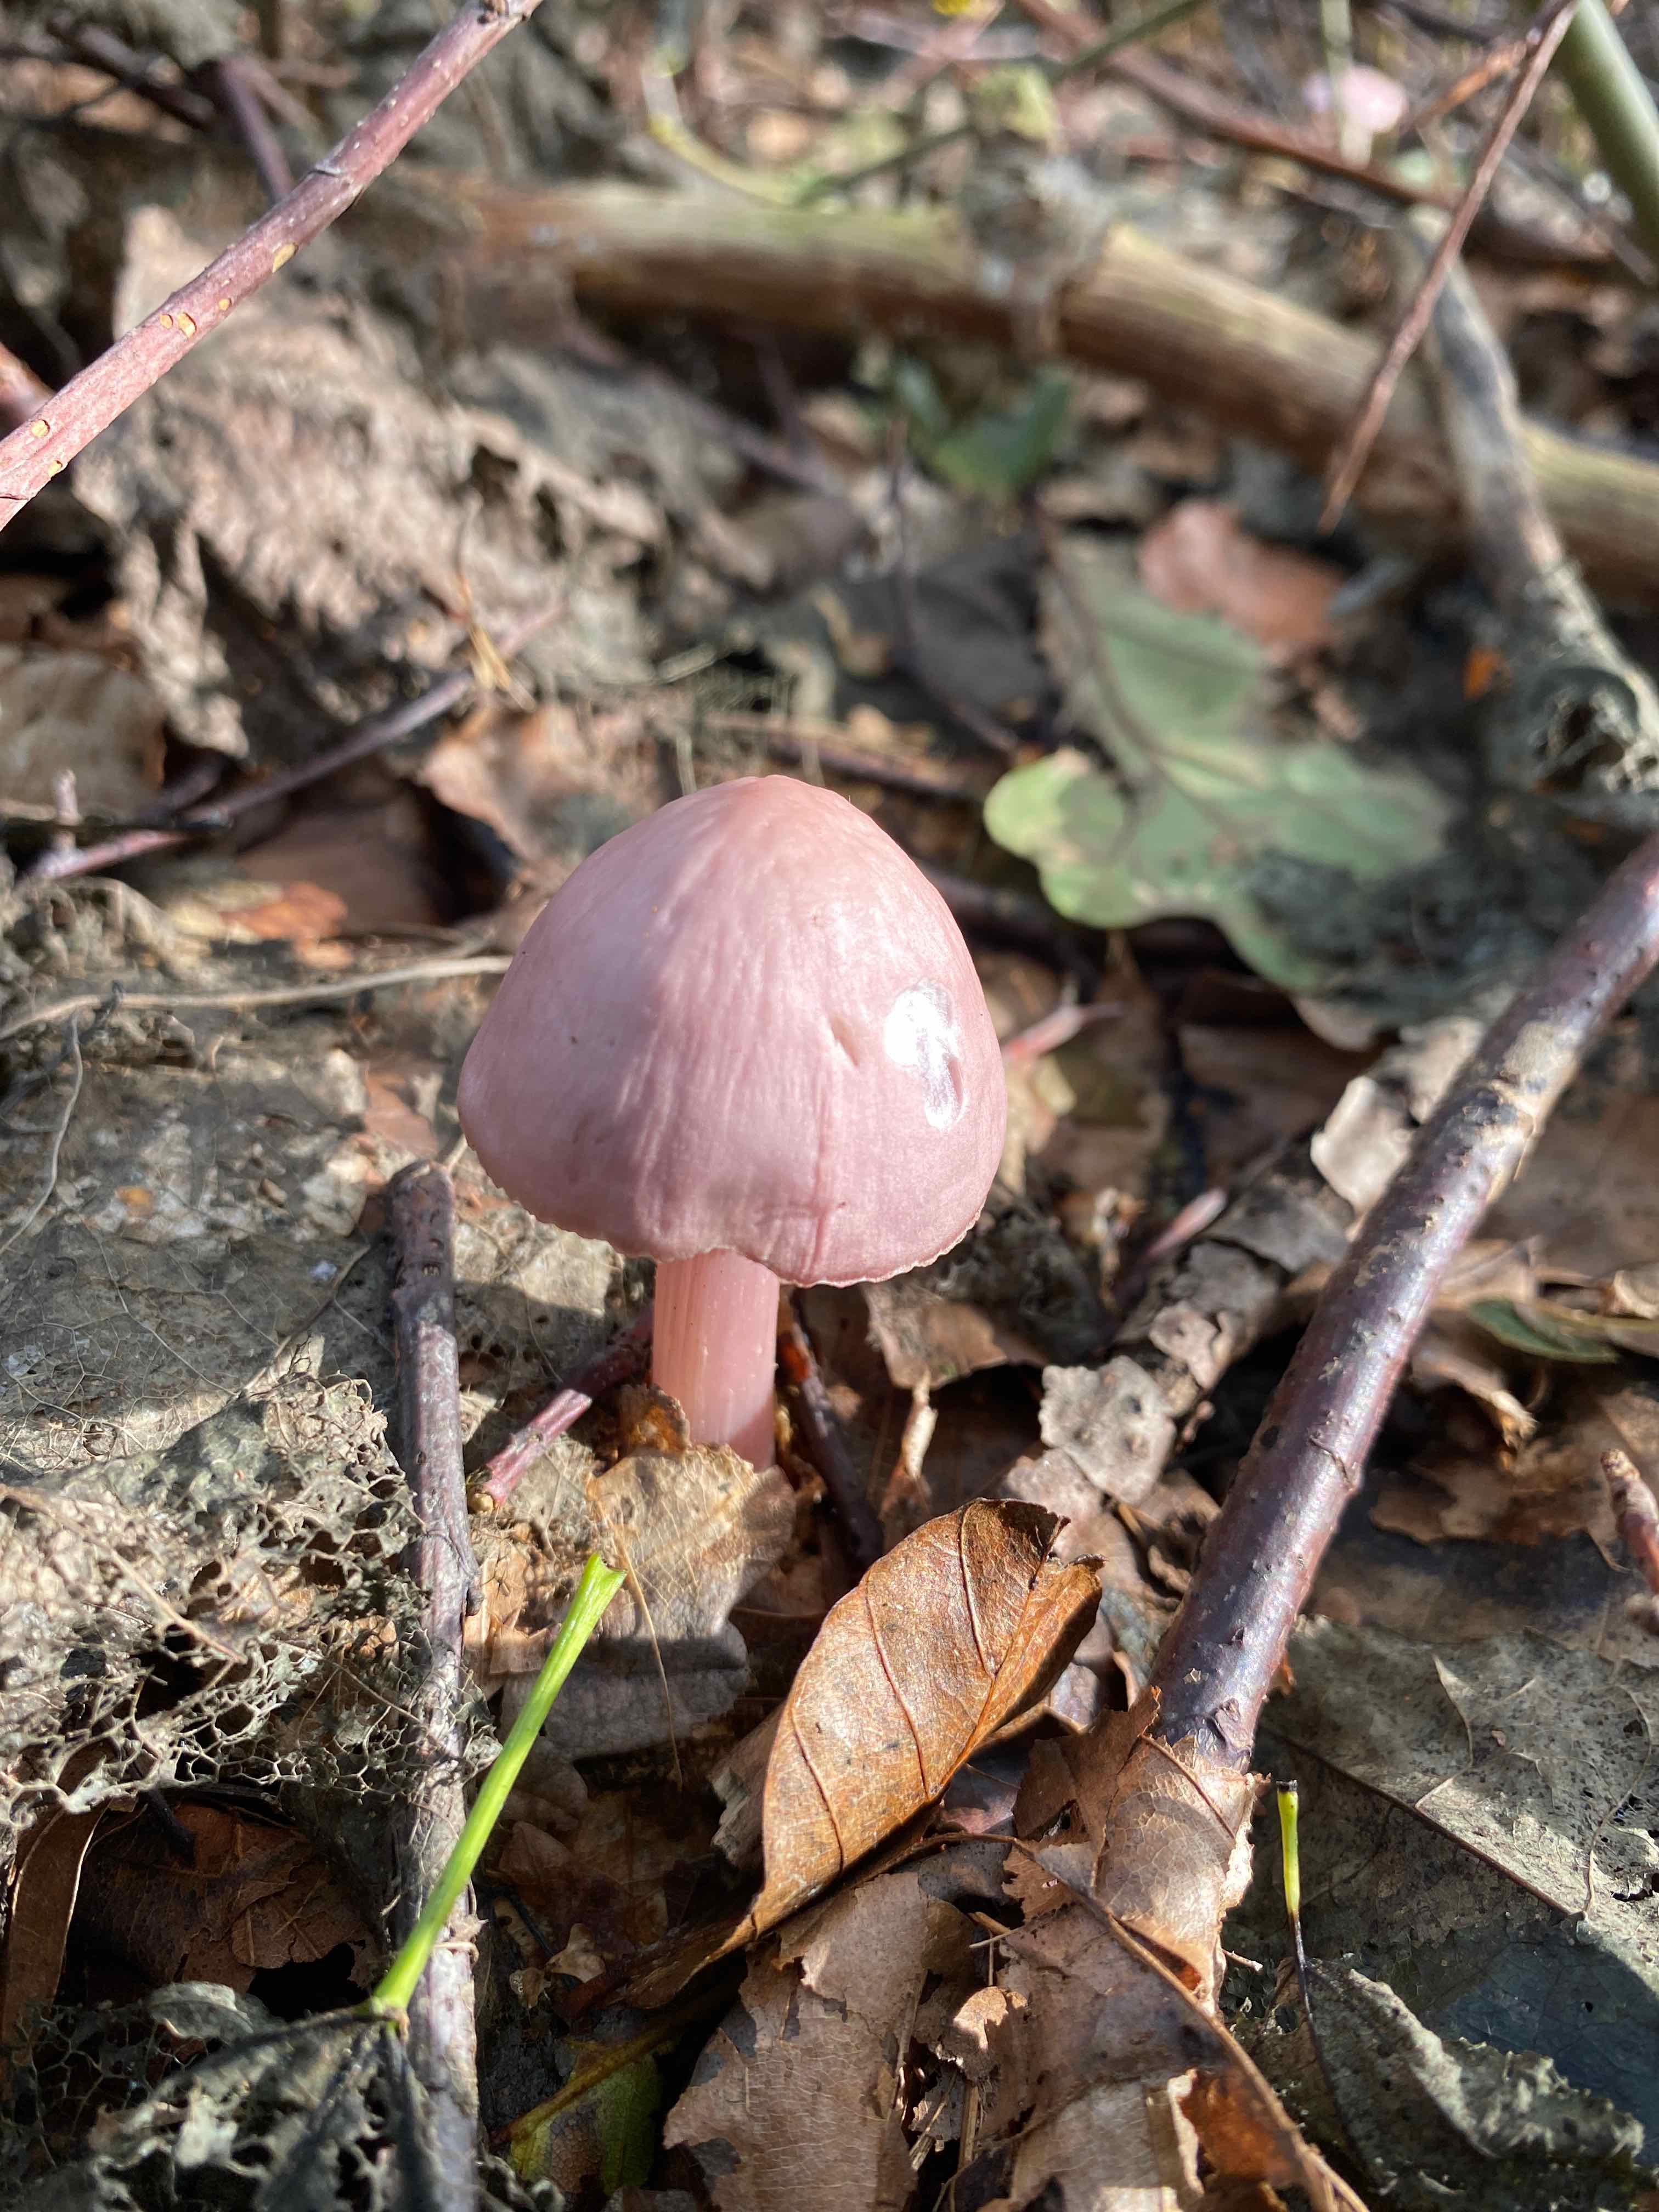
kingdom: Fungi
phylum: Basidiomycota
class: Agaricomycetes
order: Agaricales
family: Mycenaceae
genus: Mycena
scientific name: Mycena rosea
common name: rosa huesvamp
